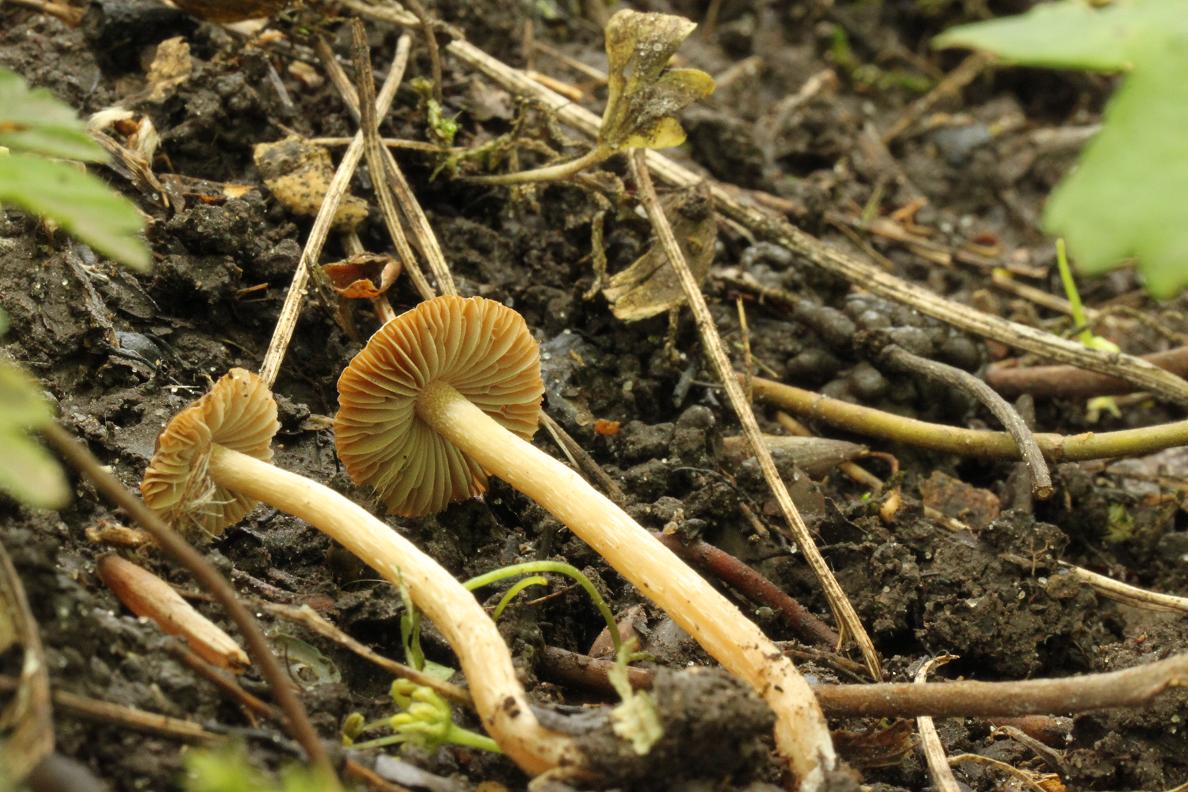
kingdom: Fungi
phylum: Basidiomycota
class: Agaricomycetes
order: Agaricales
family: Psathyrellaceae
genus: Psathyrella
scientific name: Psathyrella panaeoloides
